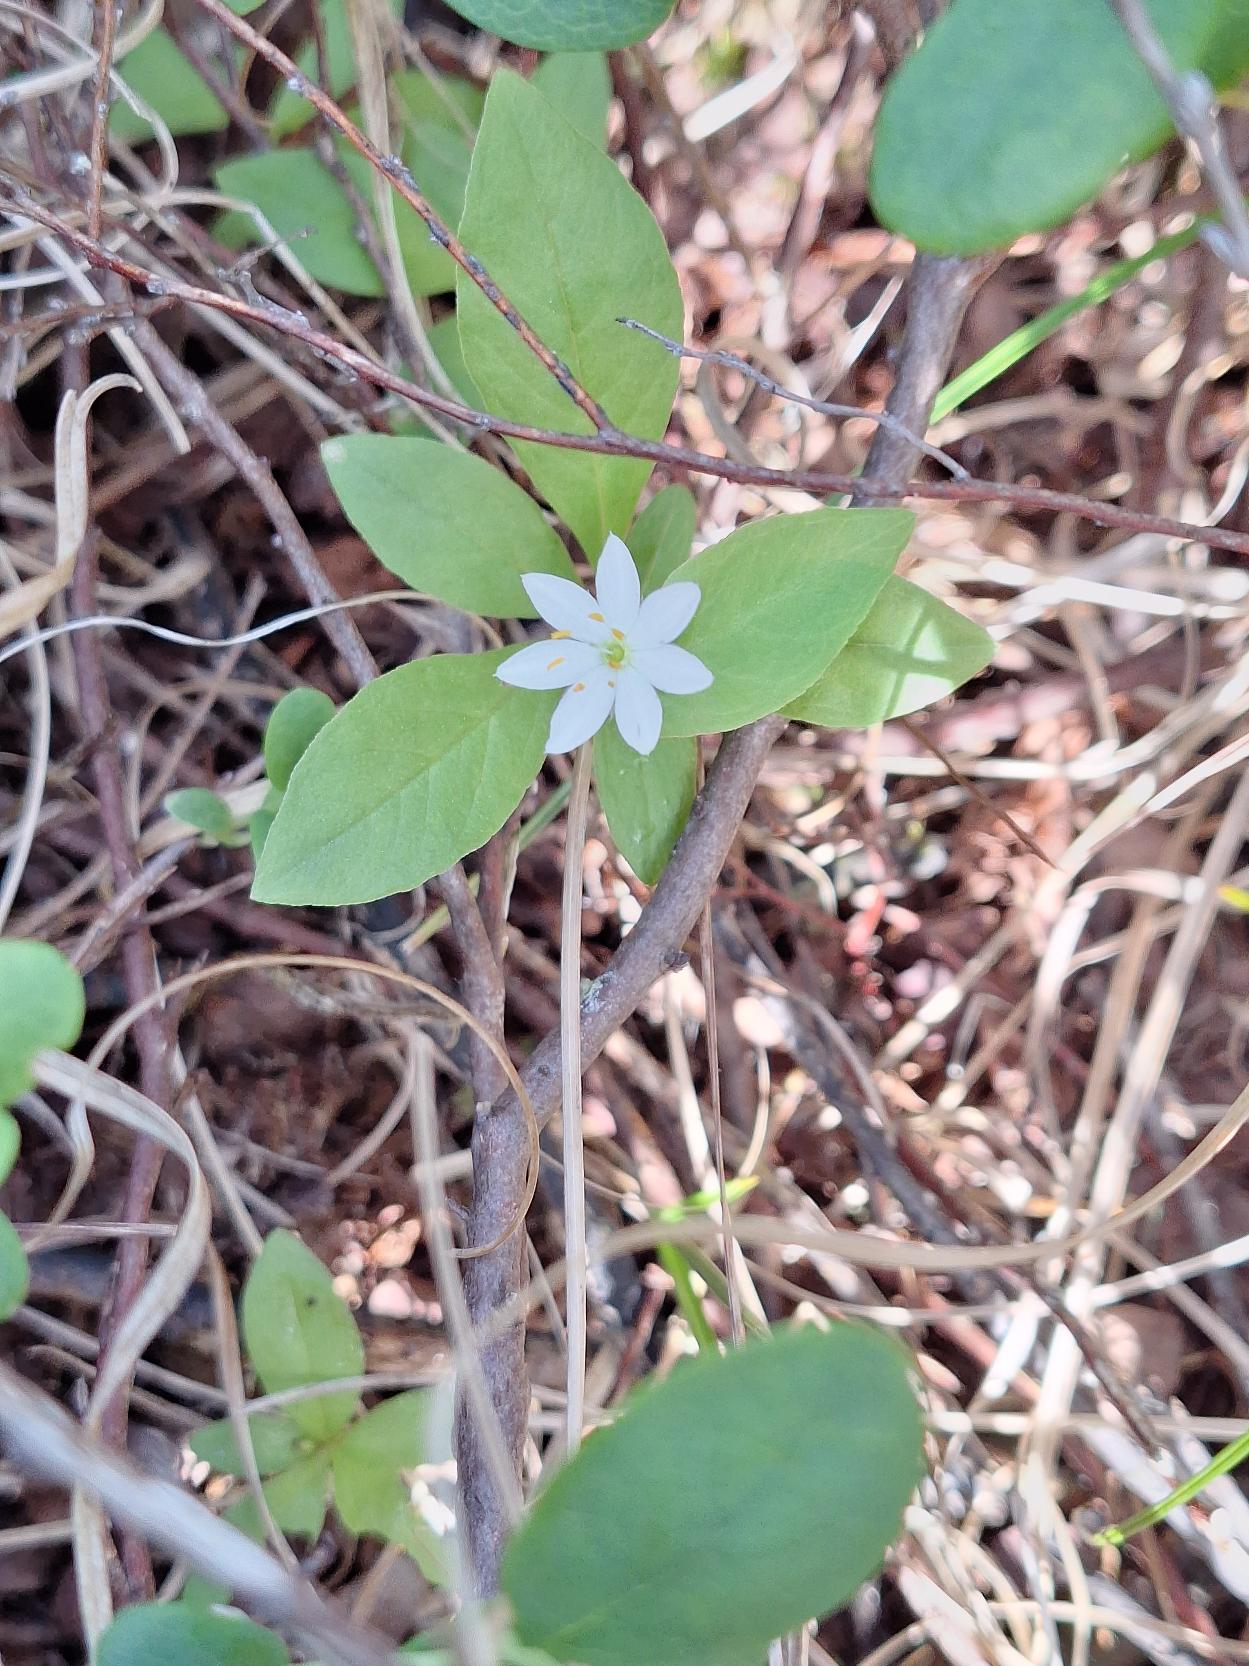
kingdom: Plantae
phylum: Tracheophyta
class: Magnoliopsida
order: Ericales
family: Primulaceae
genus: Lysimachia
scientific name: Lysimachia europaea
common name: Skovstjerne
